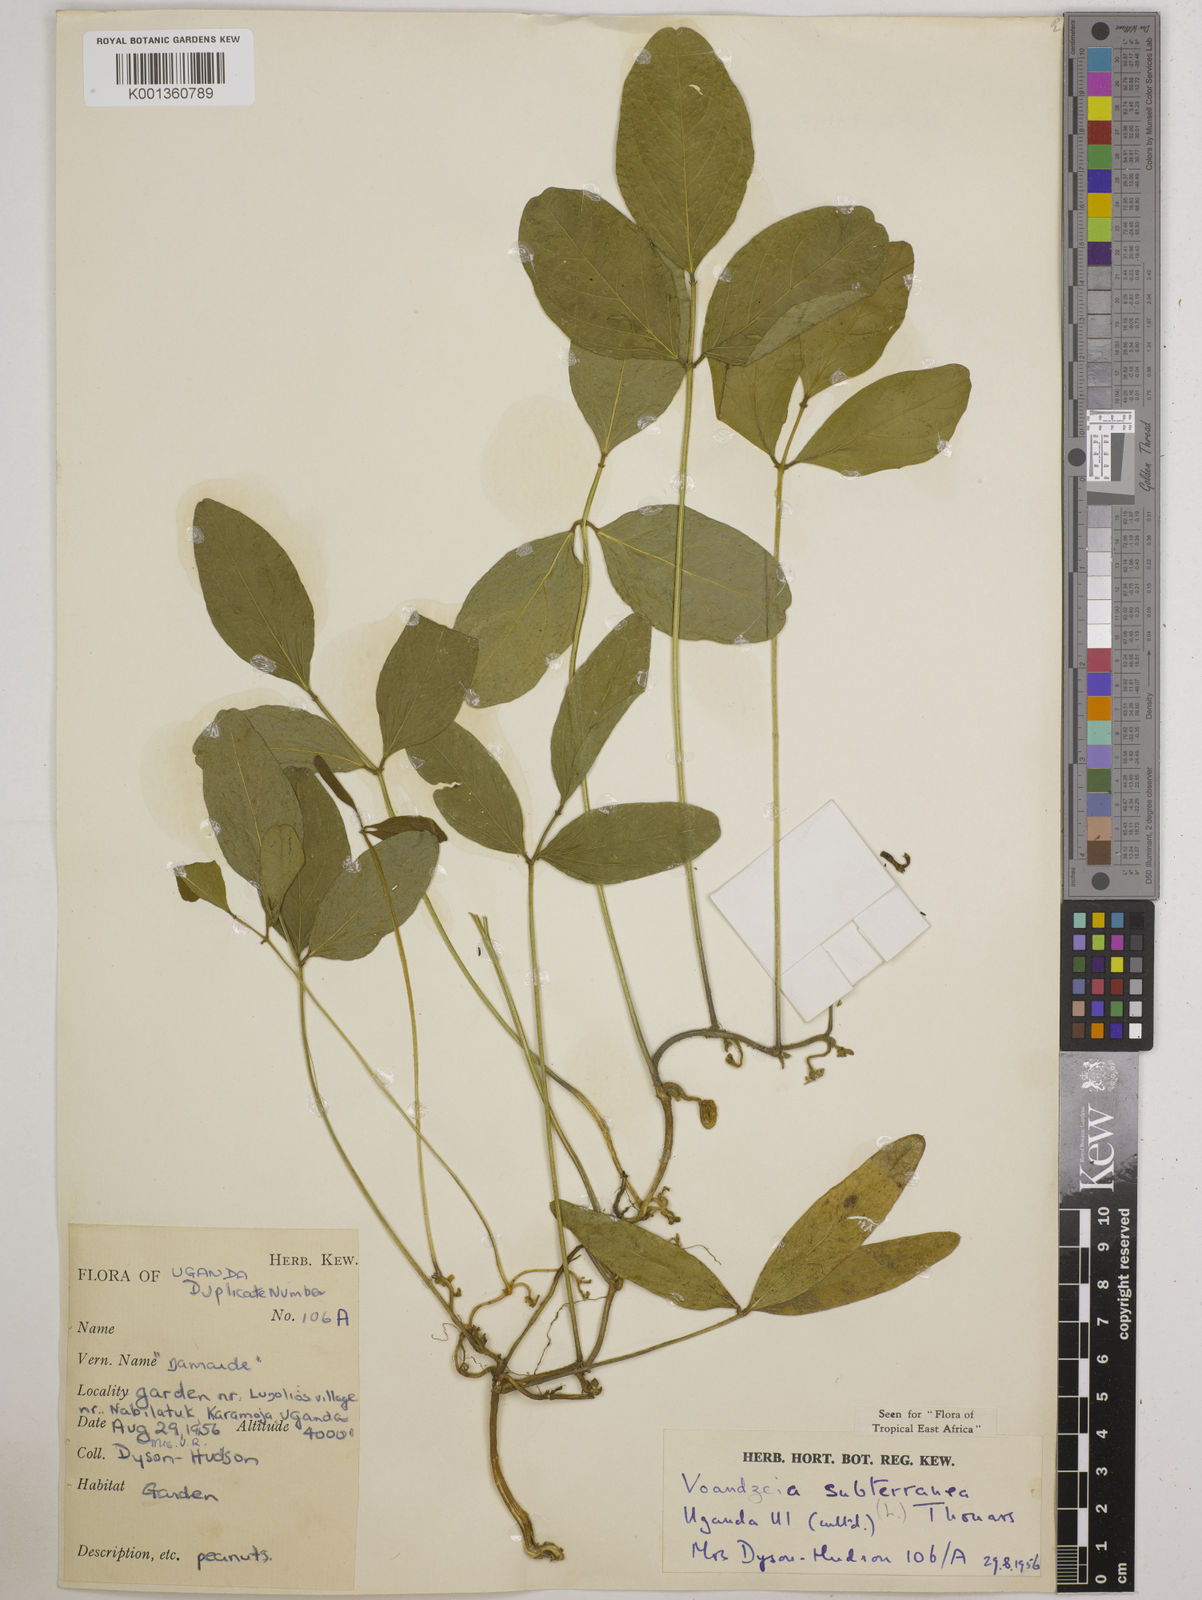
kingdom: Plantae
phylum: Tracheophyta
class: Magnoliopsida
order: Fabales
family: Fabaceae
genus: Vigna
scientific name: Vigna subterranea
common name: Bambara groundnut
